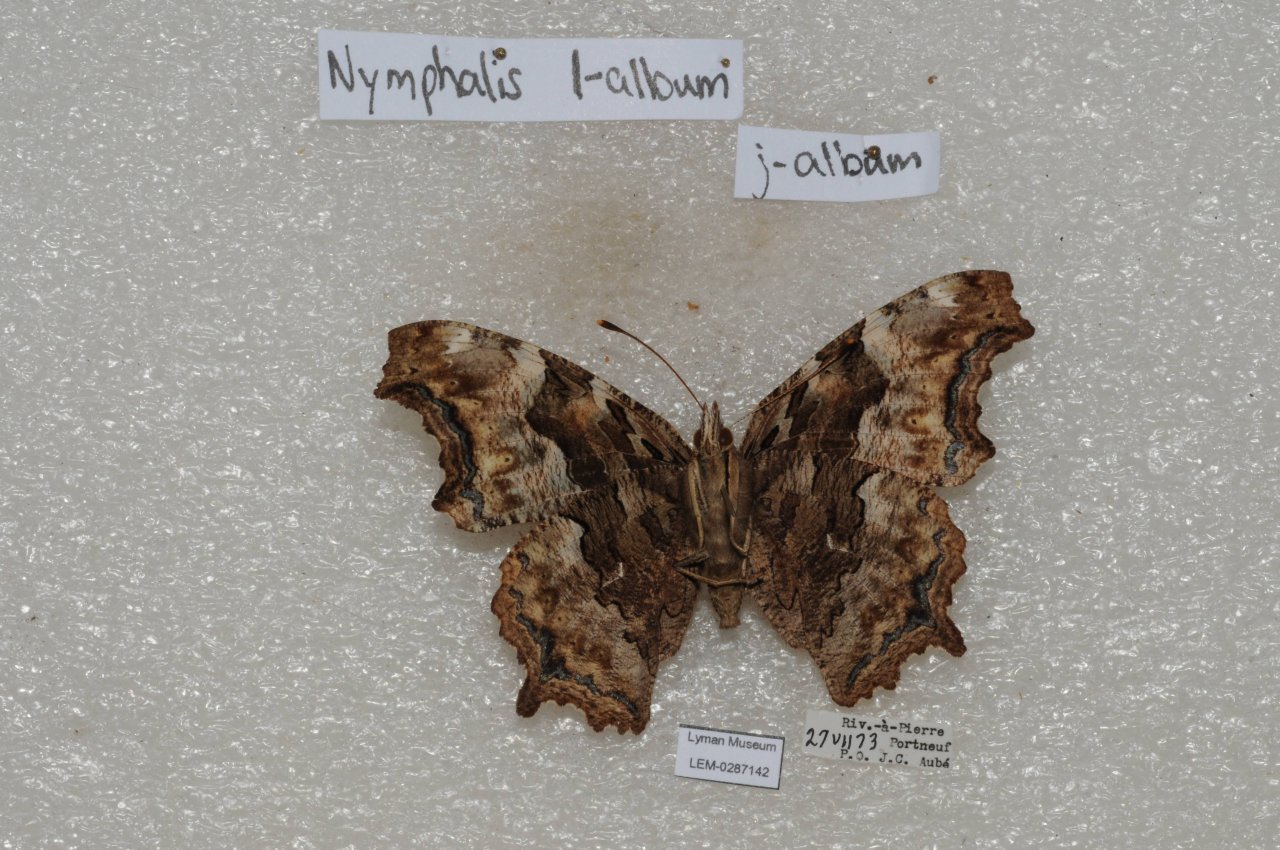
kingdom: Animalia
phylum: Arthropoda
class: Insecta
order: Lepidoptera
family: Nymphalidae
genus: Polygonia
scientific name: Polygonia vaualbum
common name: Compton Tortoiseshell
